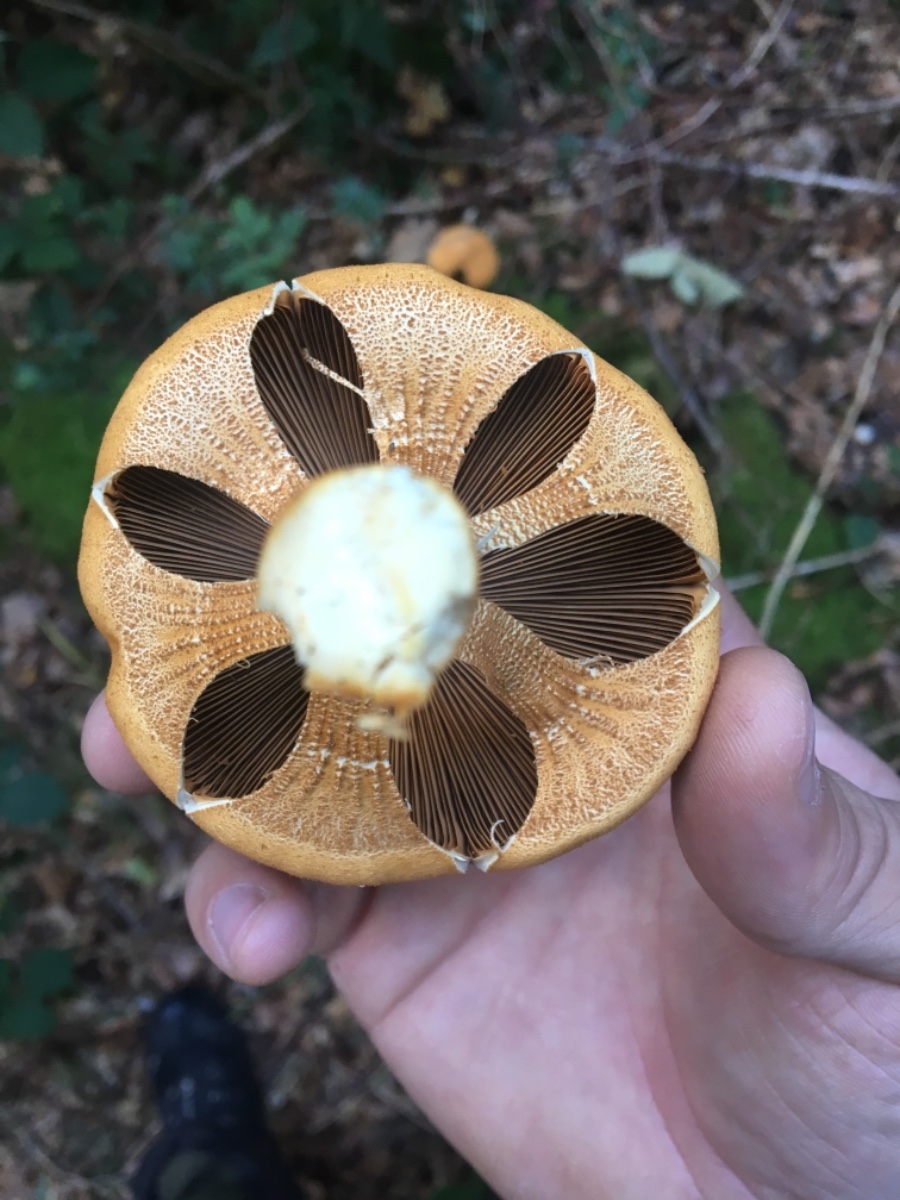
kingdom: Fungi
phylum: Basidiomycota
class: Agaricomycetes
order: Agaricales
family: Tricholomataceae
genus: Phaeolepiota
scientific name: Phaeolepiota
